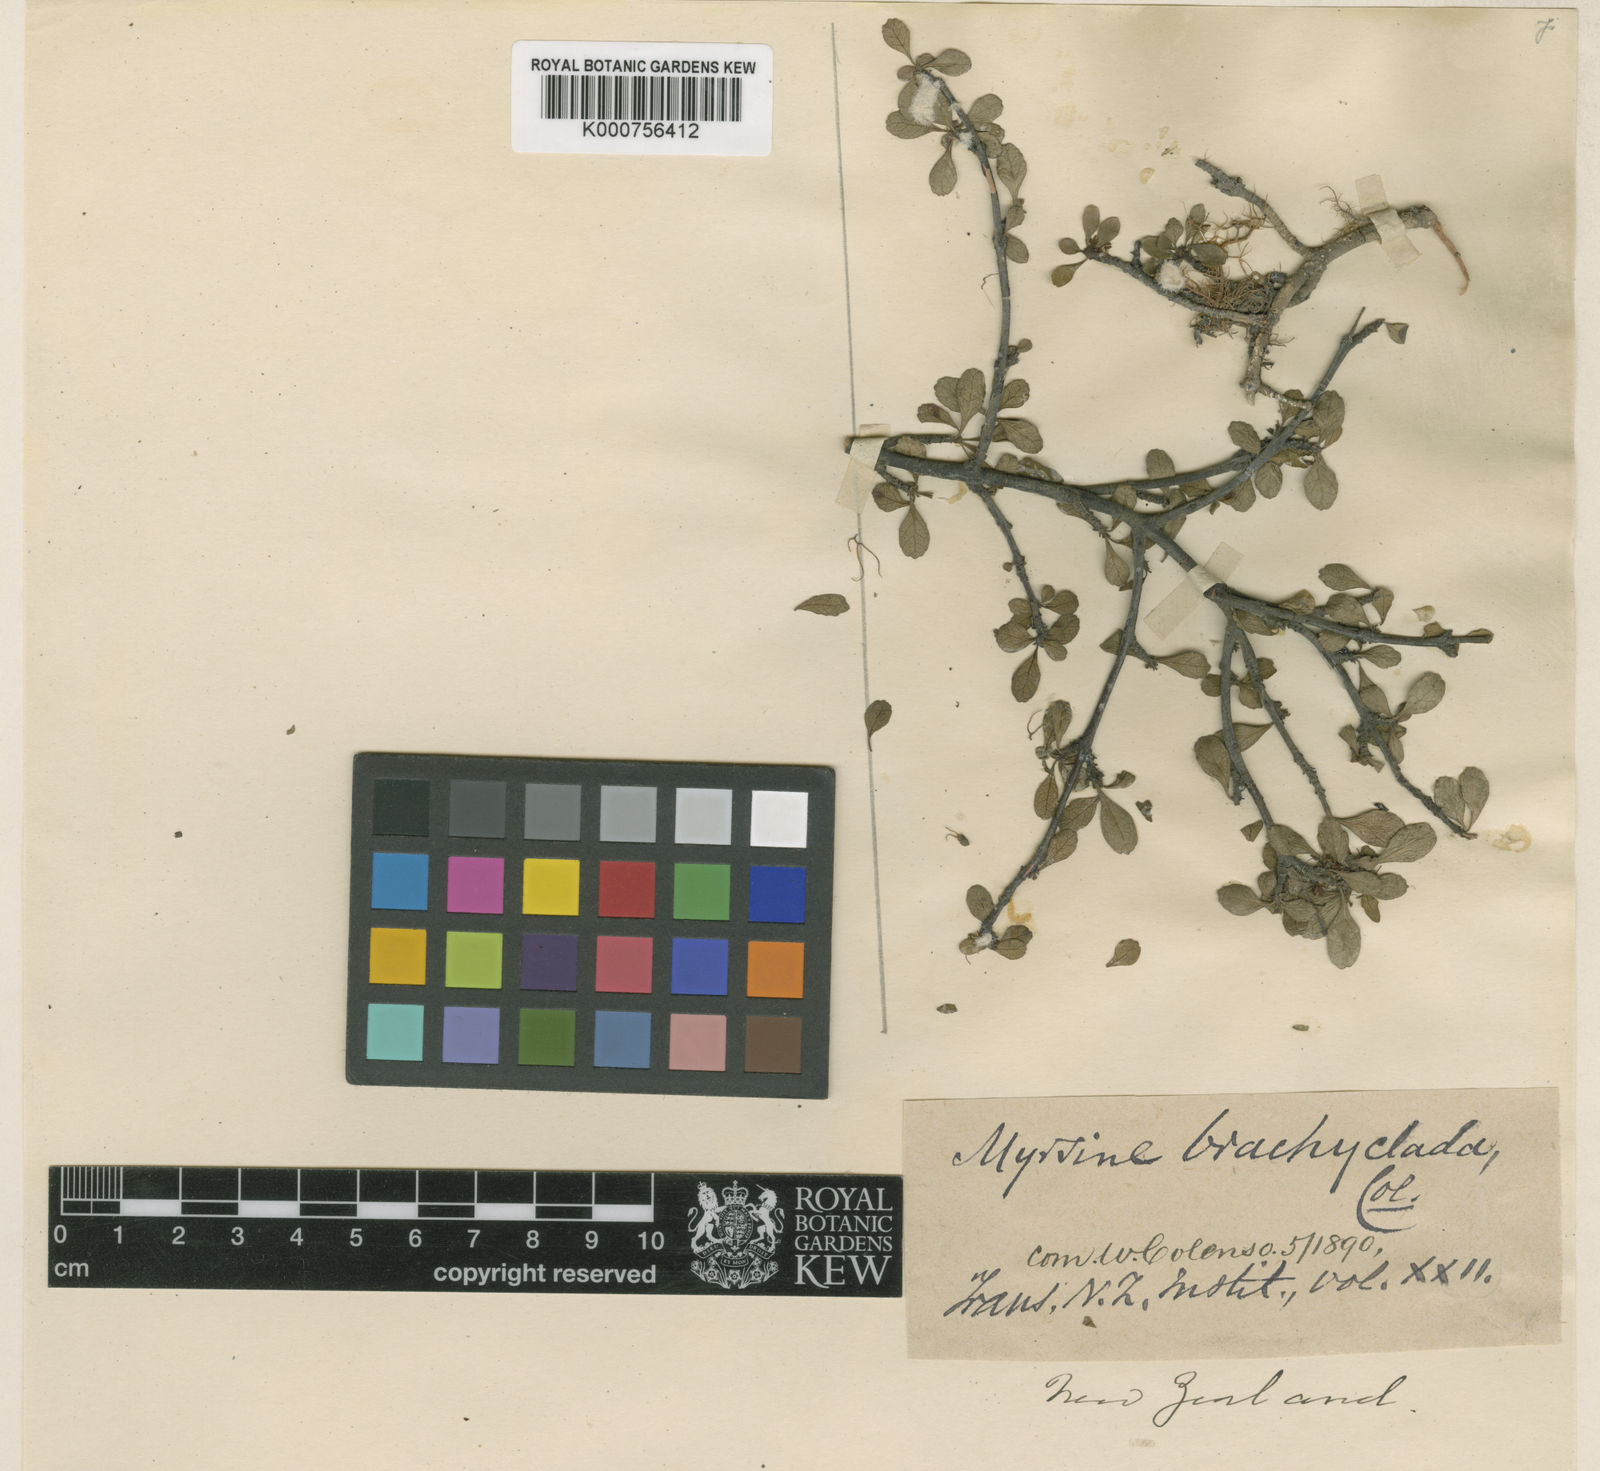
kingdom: Plantae
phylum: Tracheophyta
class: Magnoliopsida
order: Oxalidales
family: Elaeocarpaceae
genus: Aristotelia
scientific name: Aristotelia fruticosa
